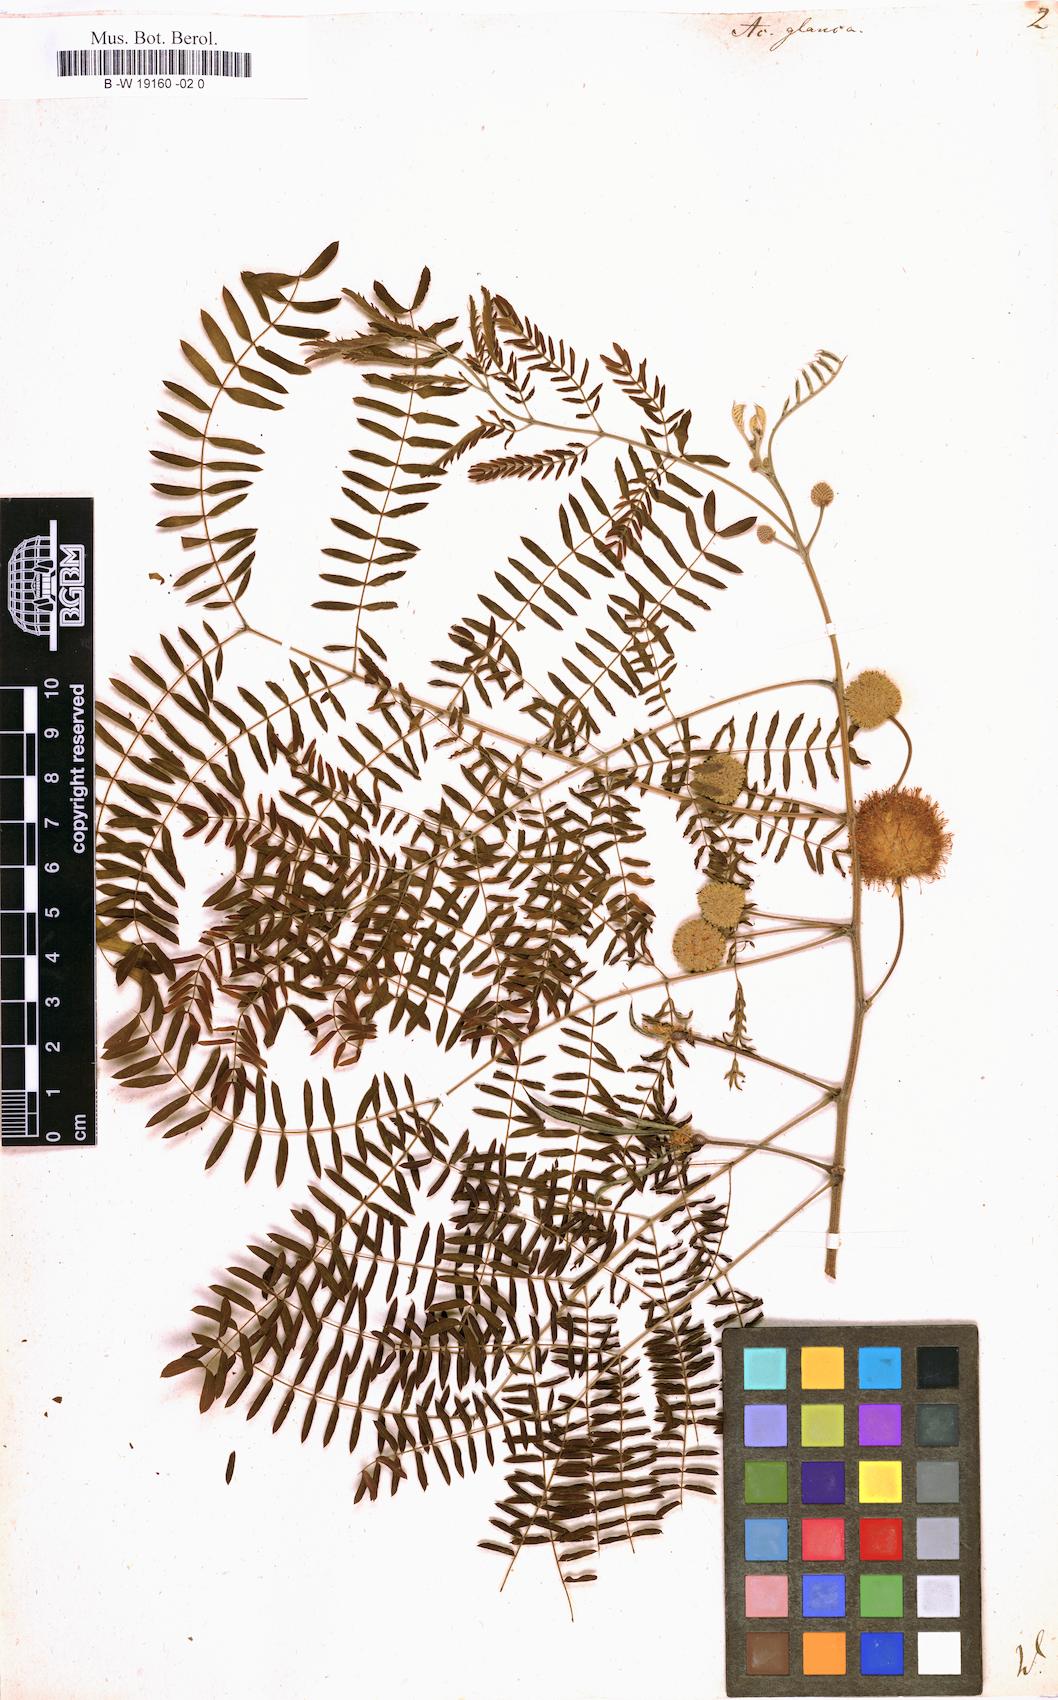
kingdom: Plantae
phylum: Tracheophyta
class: Magnoliopsida
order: Fabales
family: Fabaceae
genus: Acaciella
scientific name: Acaciella glauca
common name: Redwood
